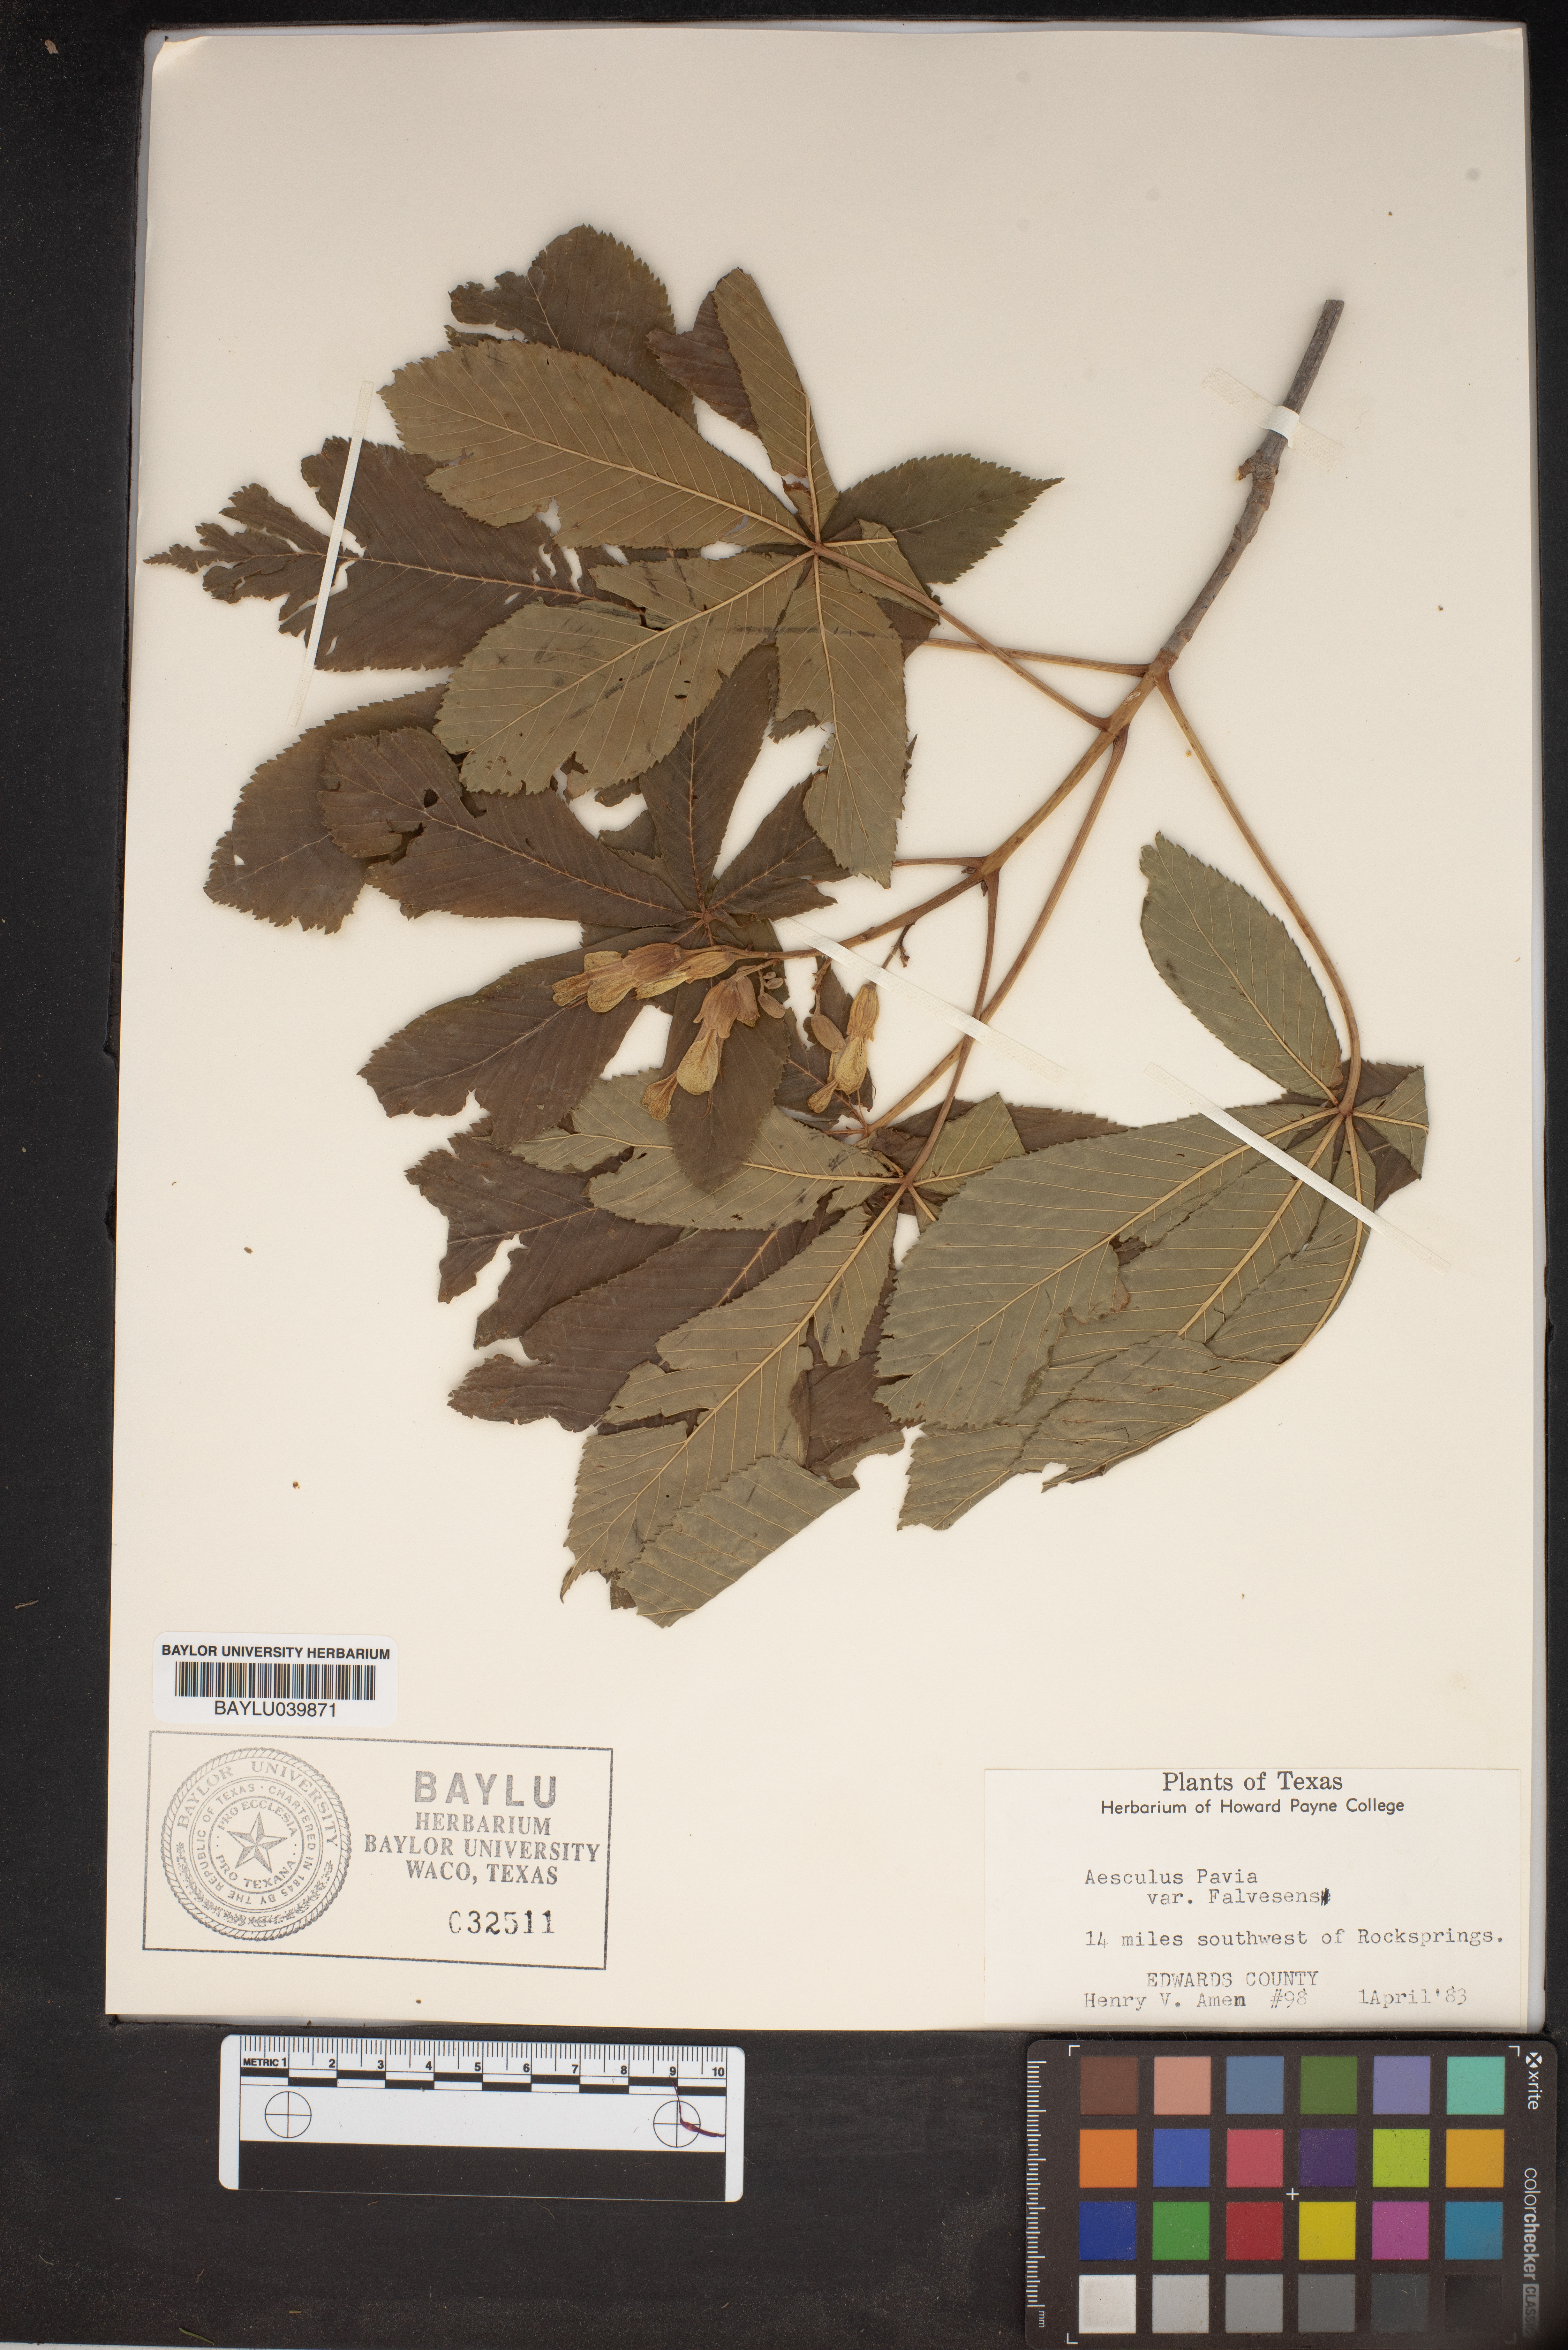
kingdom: Plantae
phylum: Tracheophyta
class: Magnoliopsida
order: Sapindales
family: Sapindaceae
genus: Aesculus
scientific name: Aesculus pavia
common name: Red buckeye
